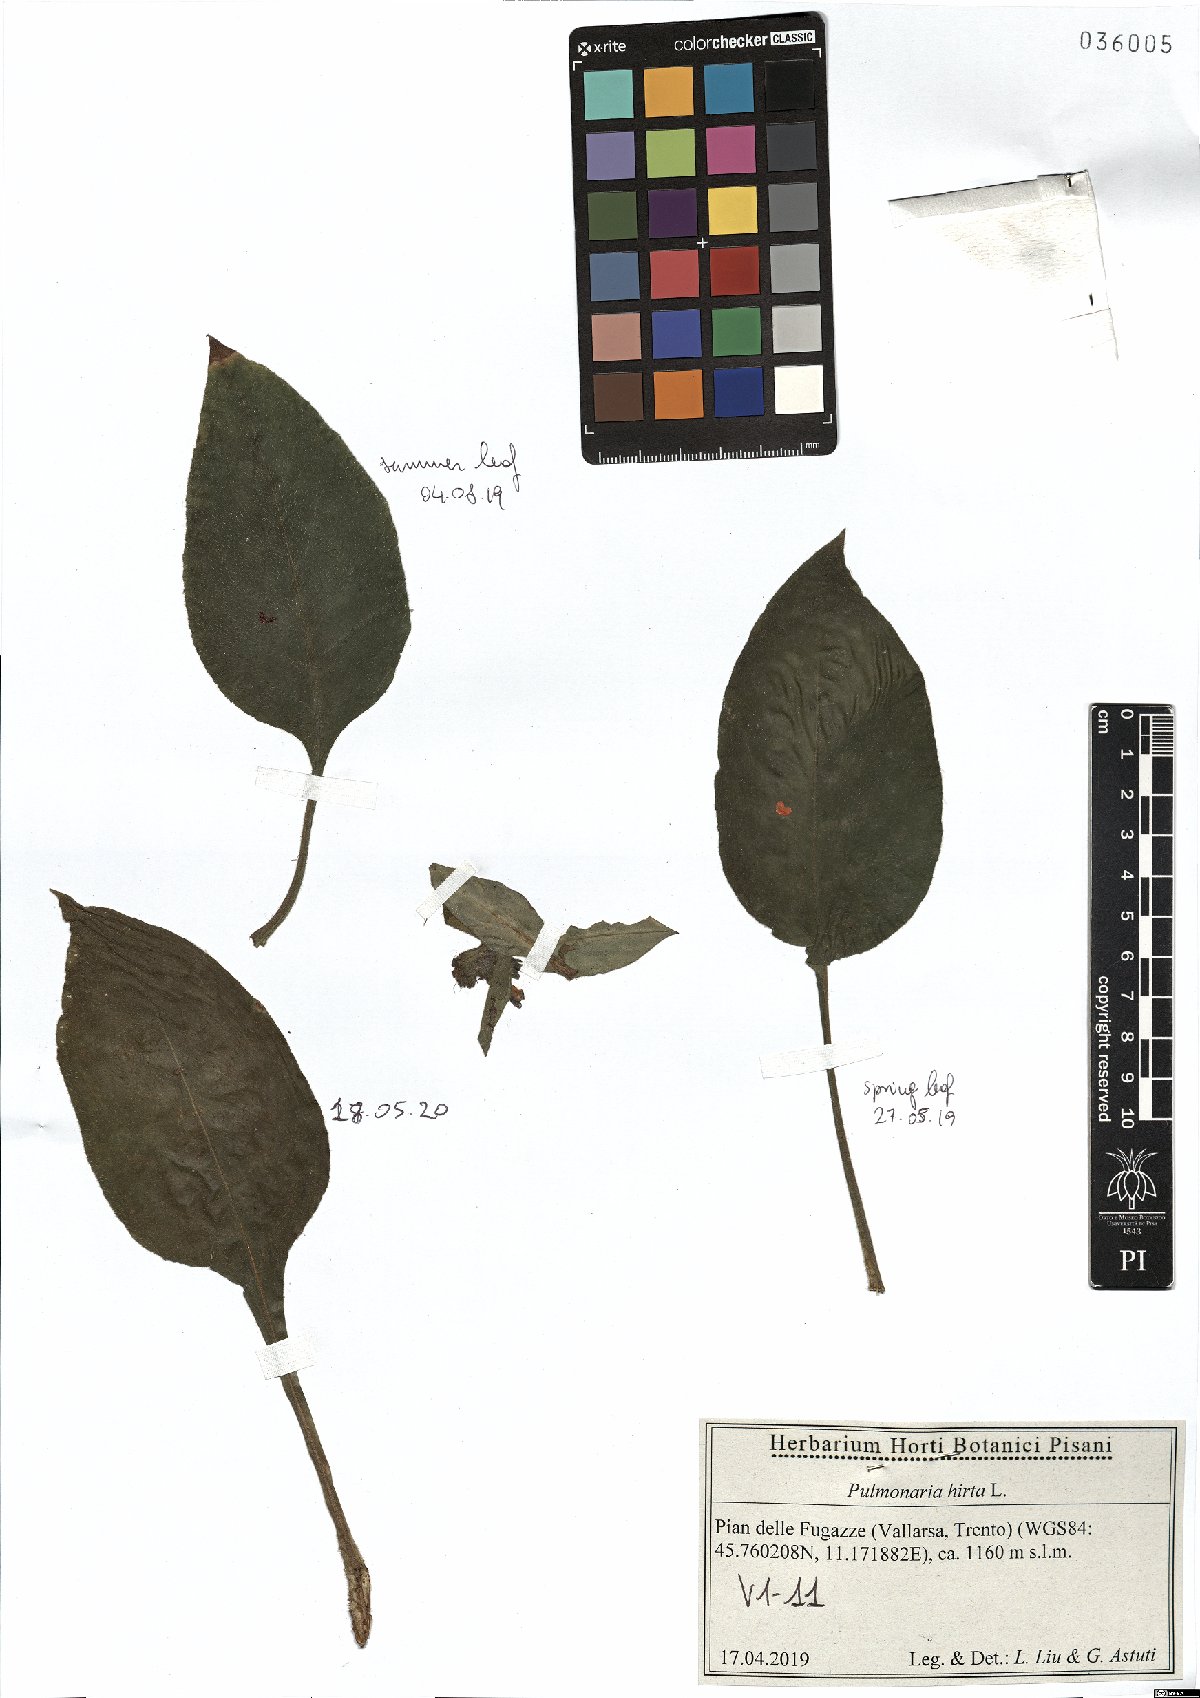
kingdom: Plantae
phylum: Tracheophyta
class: Magnoliopsida
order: Boraginales
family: Boraginaceae
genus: Pulmonaria
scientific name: Pulmonaria hirta
